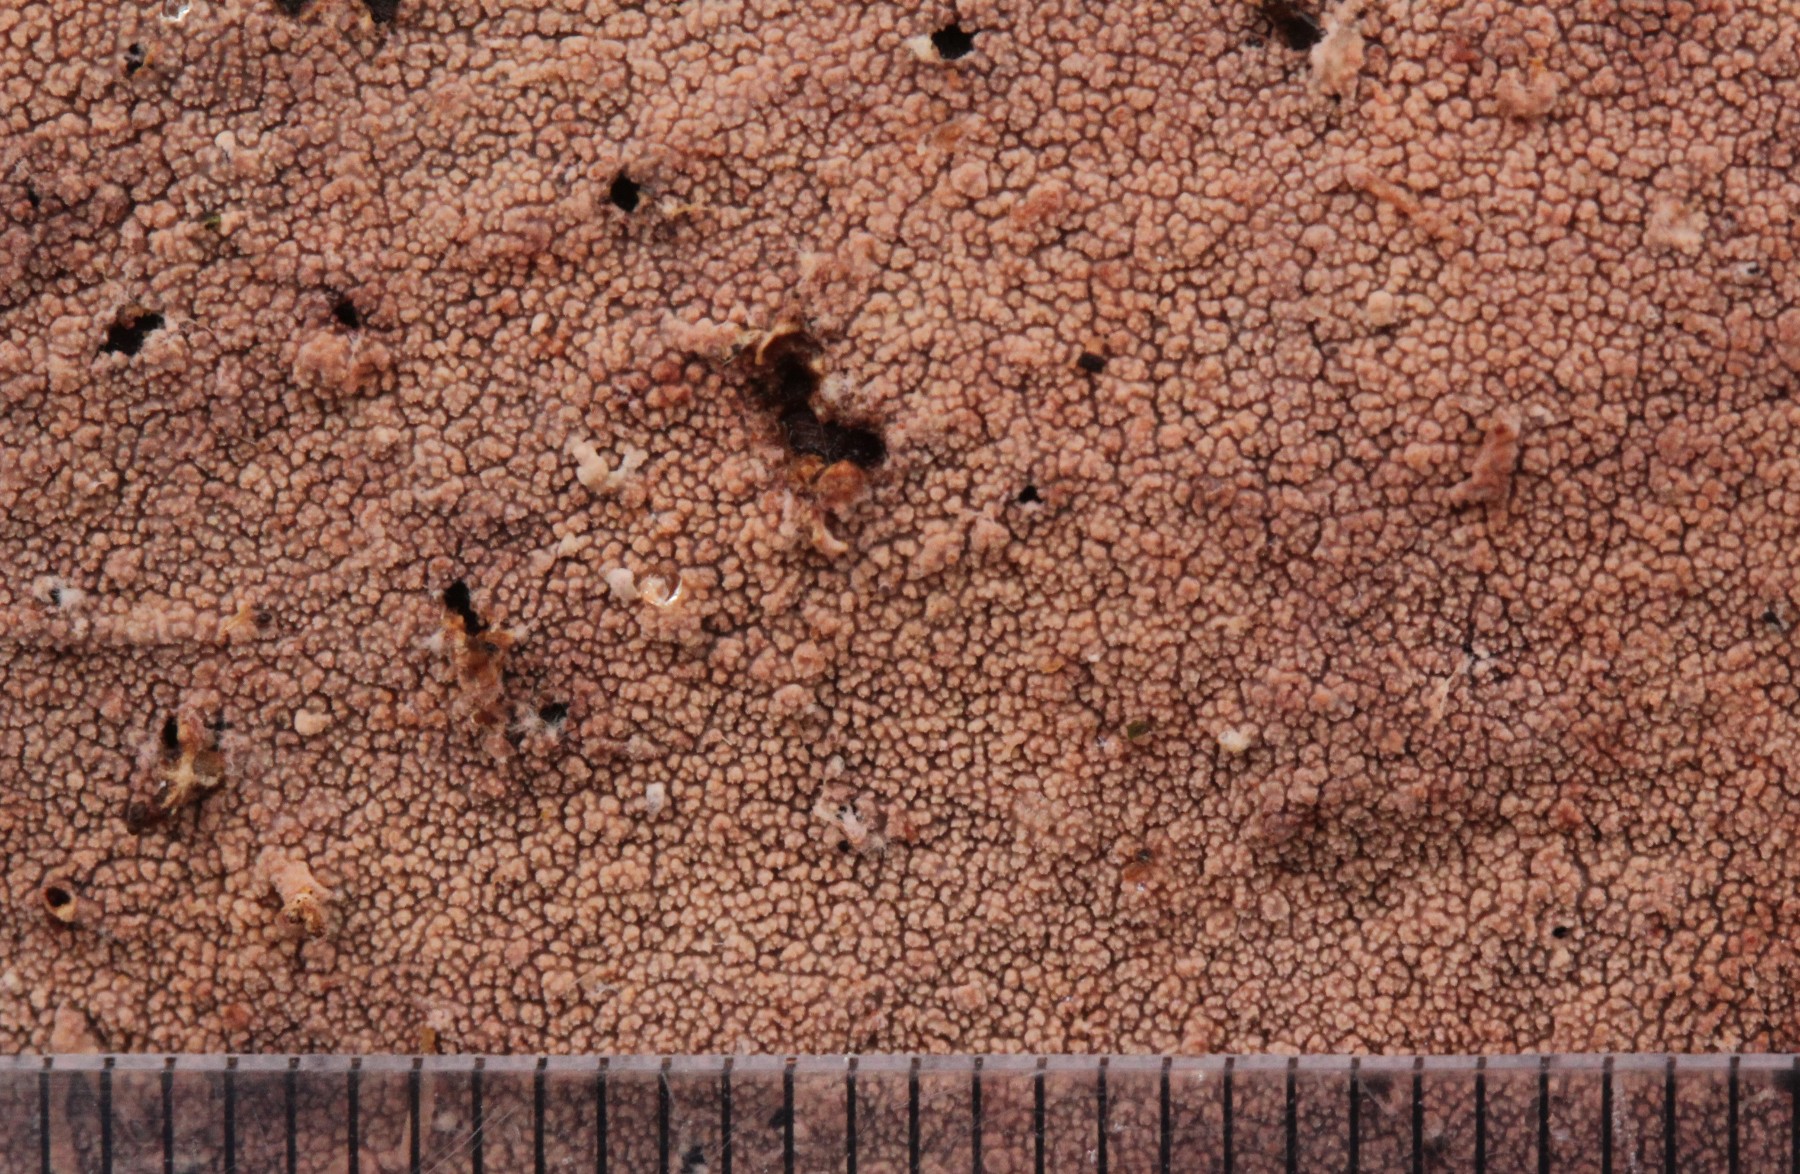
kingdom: Fungi
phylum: Basidiomycota
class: Agaricomycetes
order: Polyporales
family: Steccherinaceae
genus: Steccherinum
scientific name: Steccherinum fimbriatum
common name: trådet skønpig
